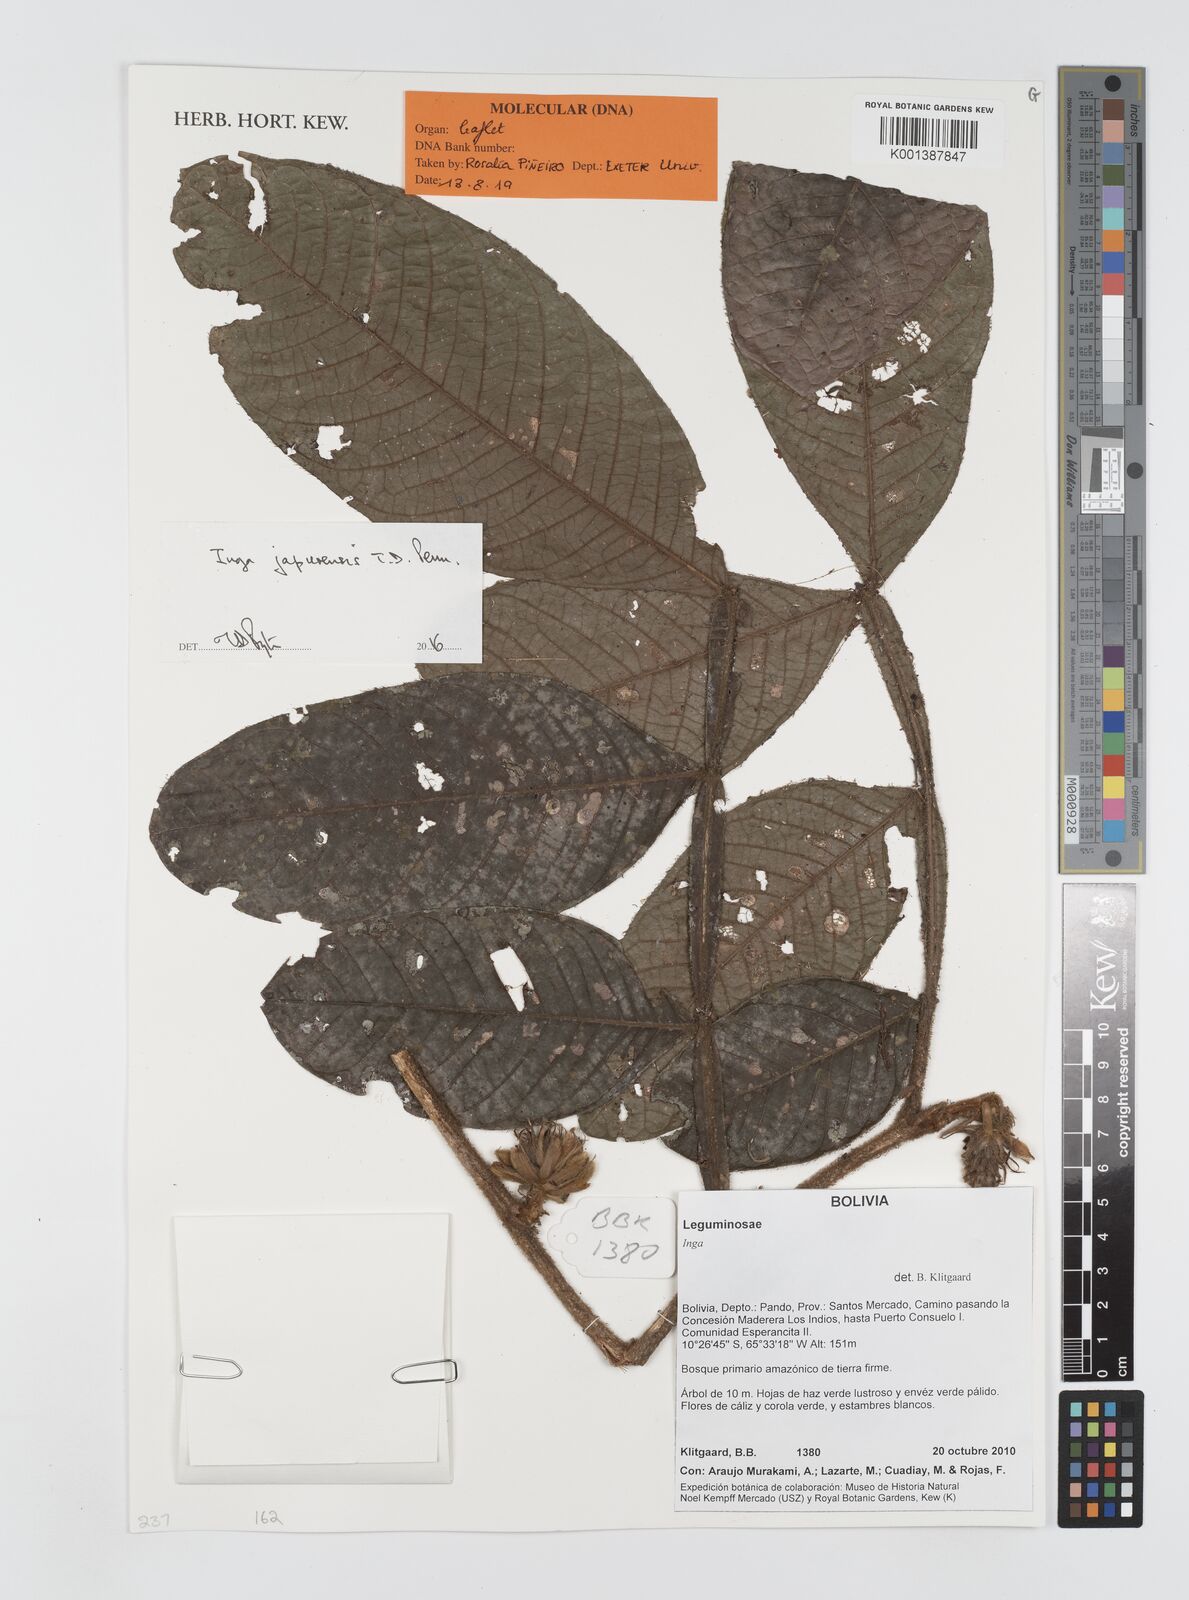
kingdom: Plantae
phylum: Tracheophyta
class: Magnoliopsida
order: Fabales
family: Fabaceae
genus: Inga
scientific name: Inga japurensis
